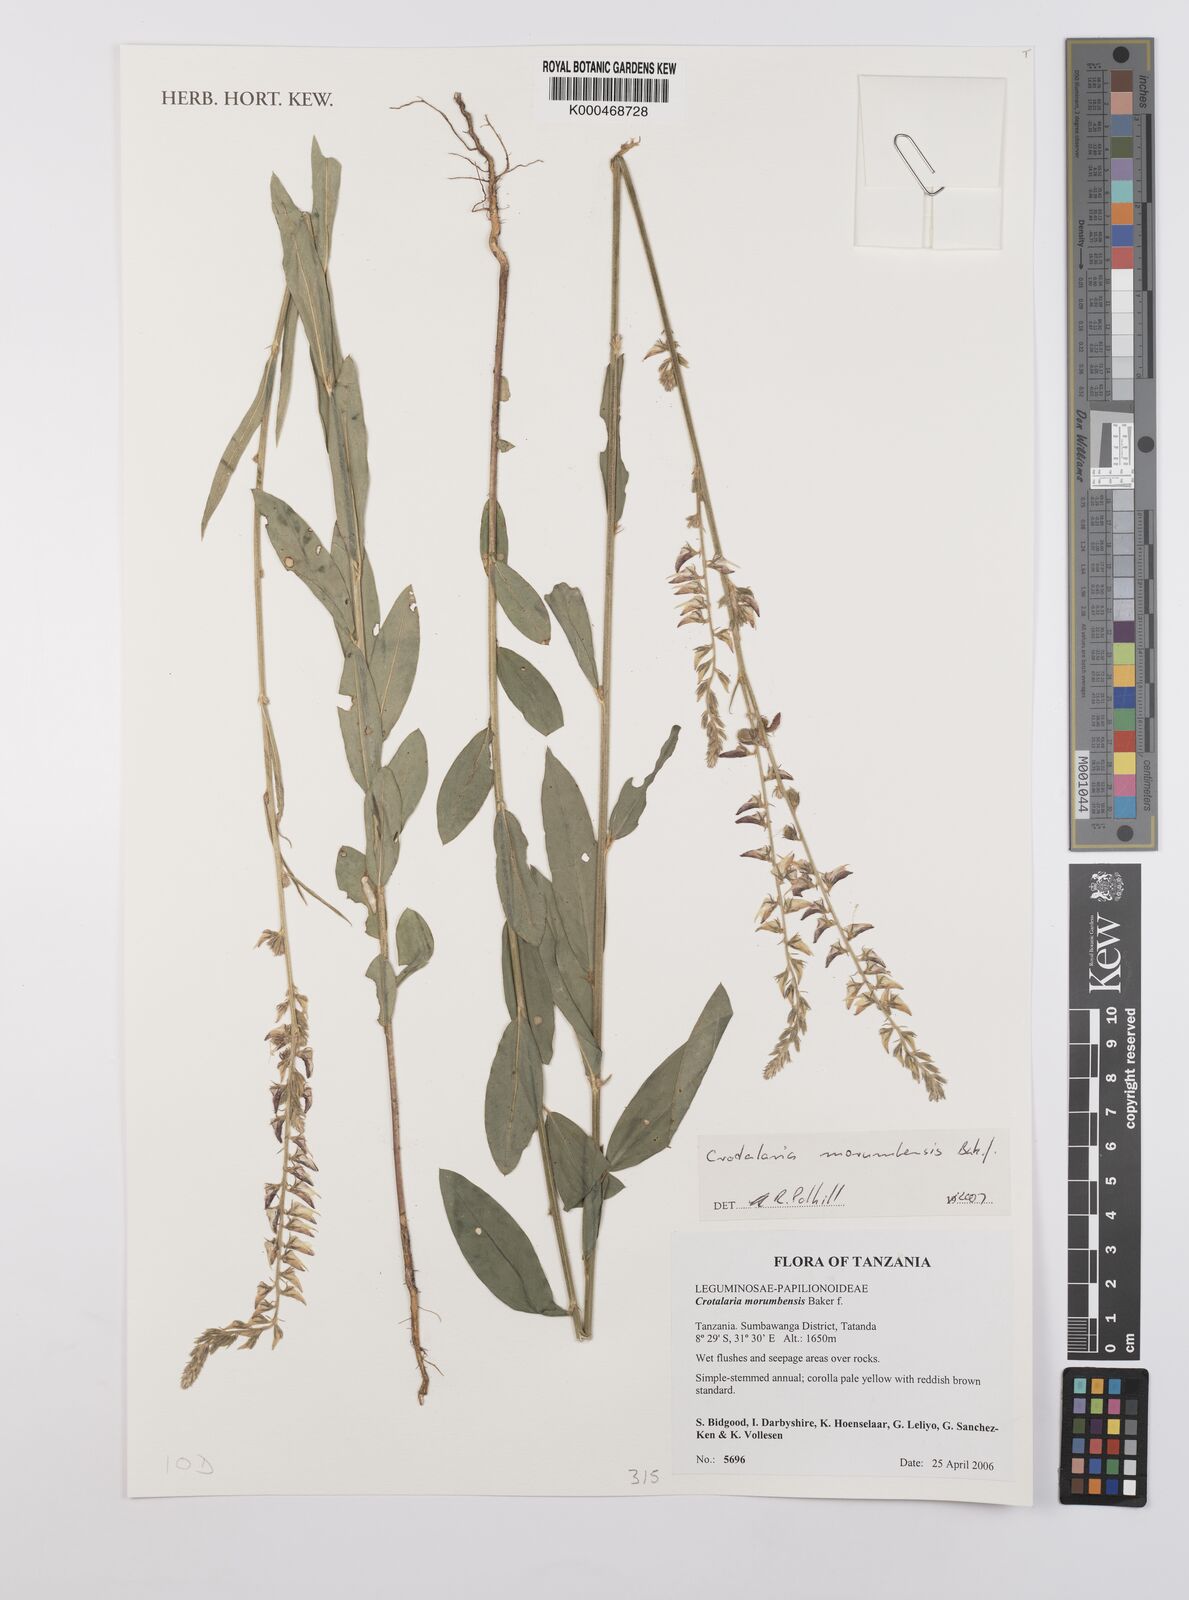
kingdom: Plantae
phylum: Tracheophyta
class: Magnoliopsida
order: Fabales
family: Fabaceae
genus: Crotalaria
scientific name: Crotalaria morumbensis
